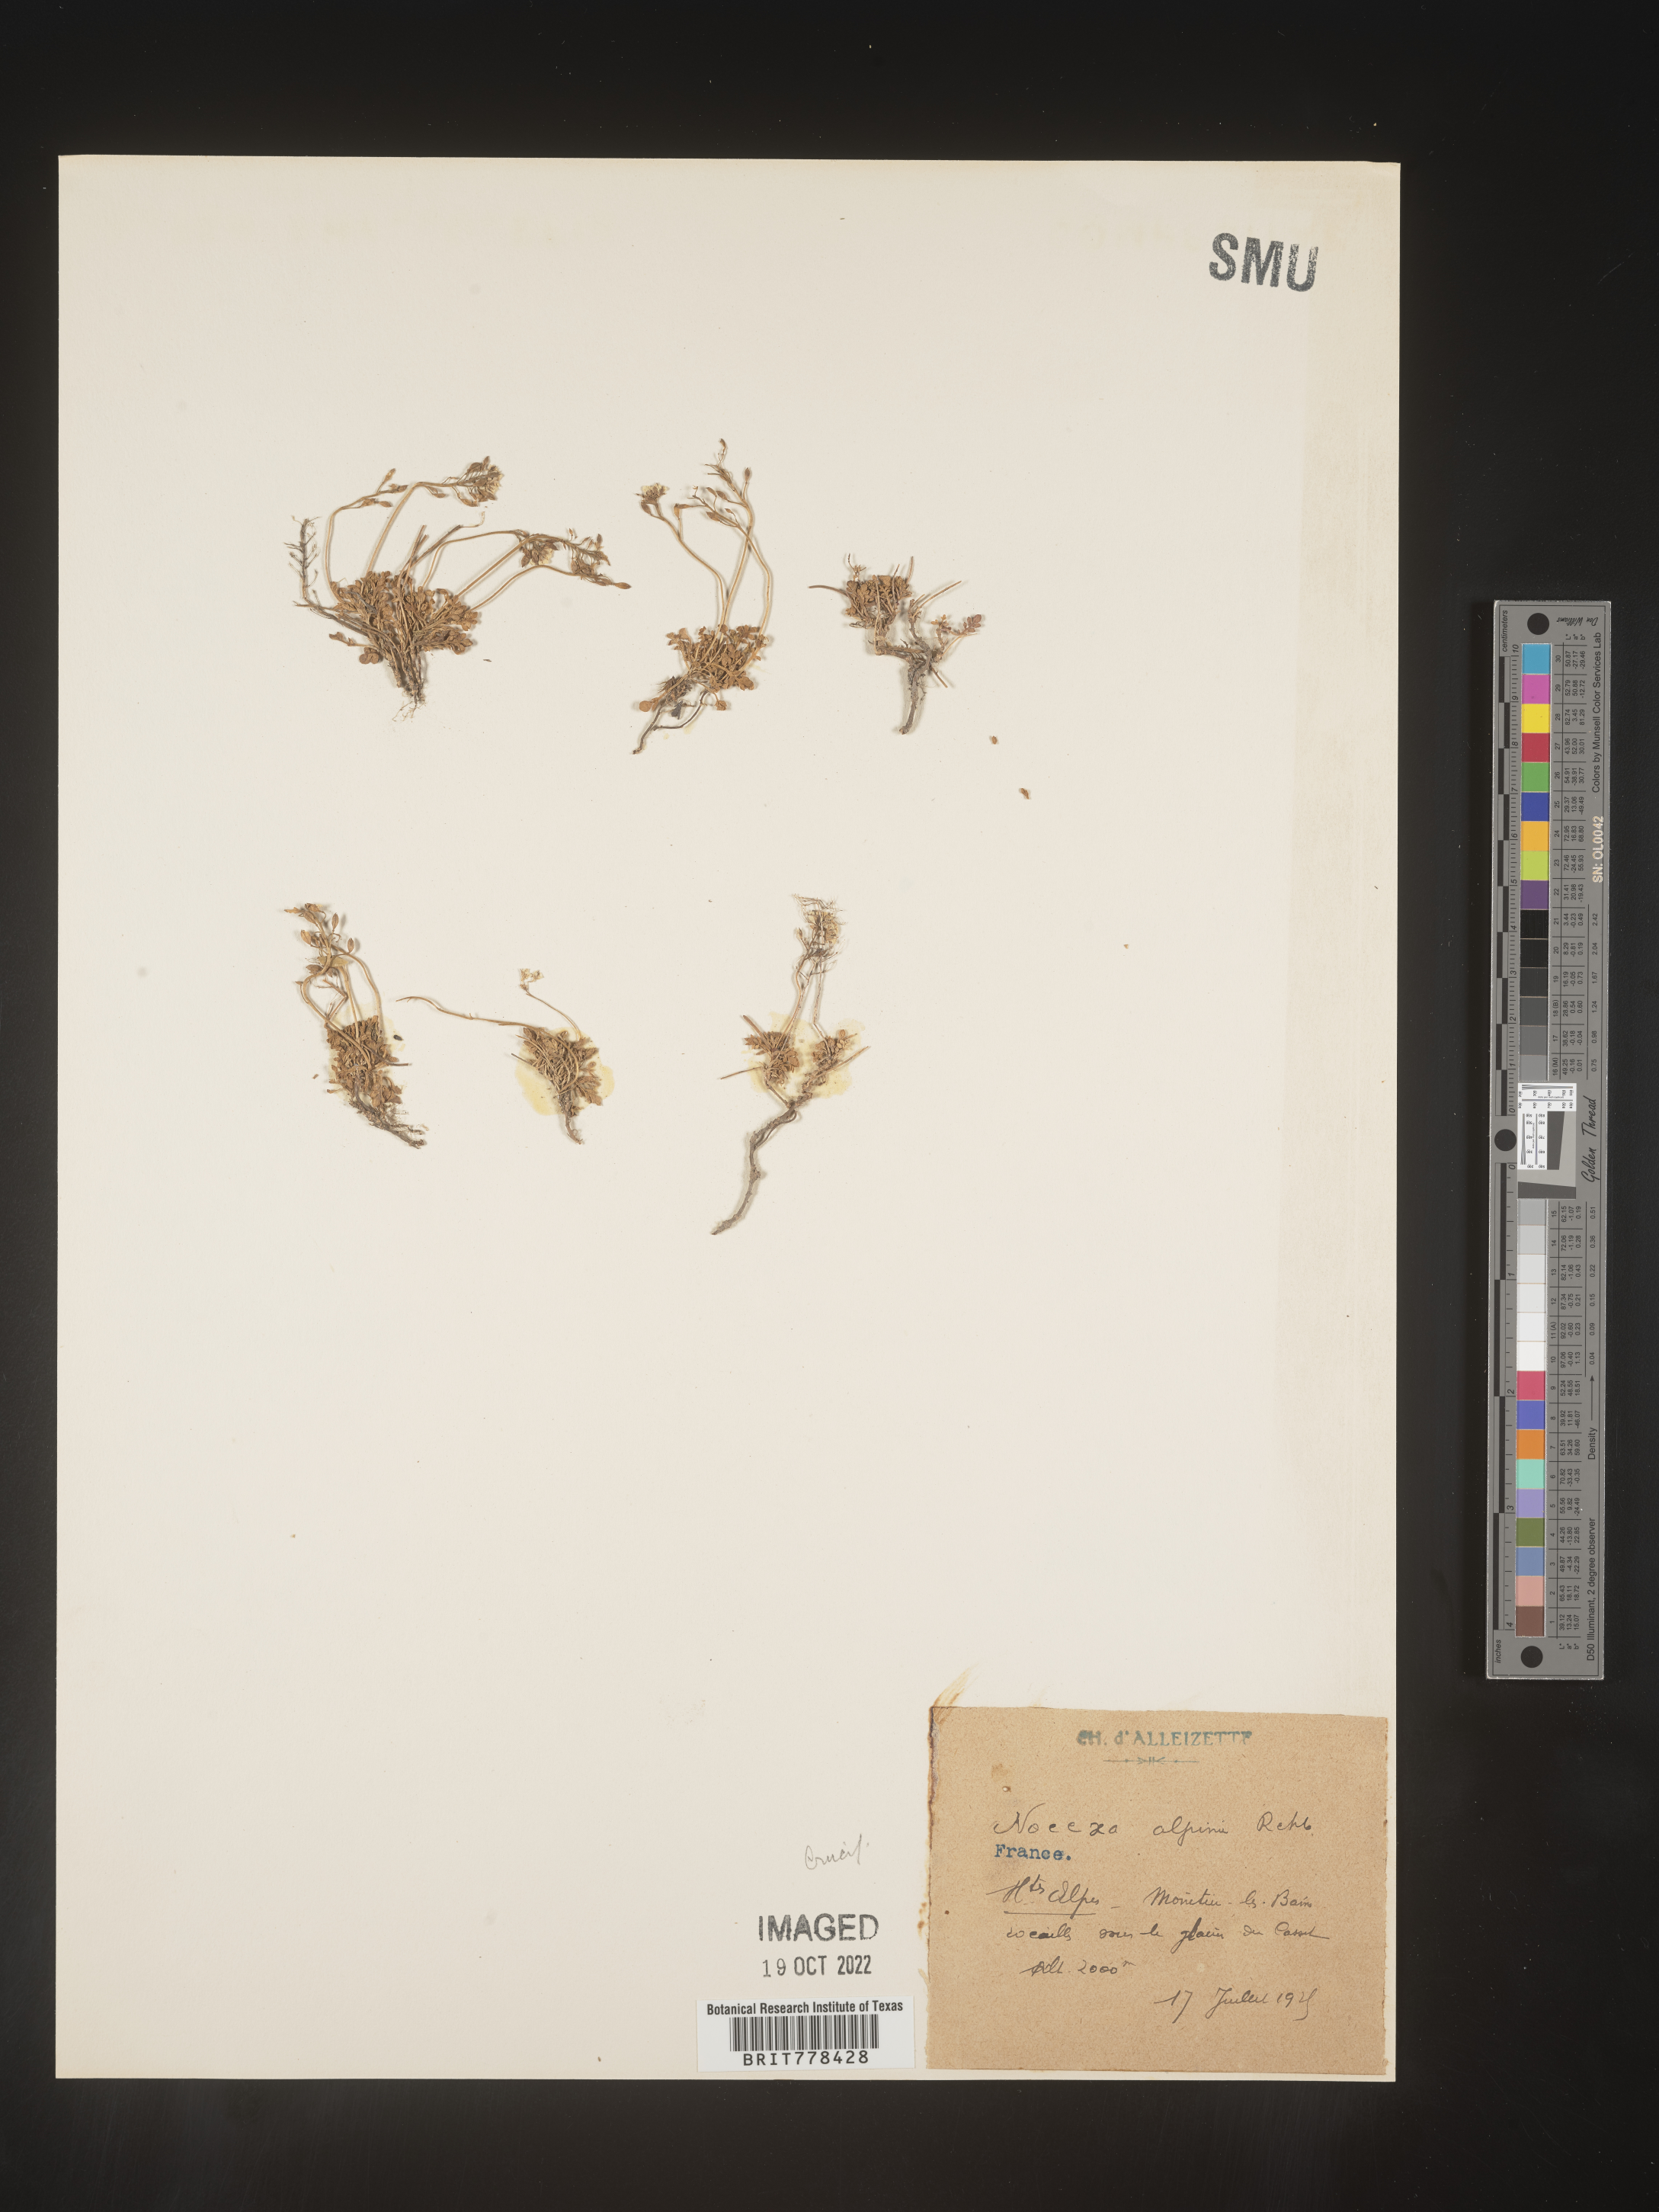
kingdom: Plantae
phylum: Tracheophyta
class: Magnoliopsida
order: Brassicales
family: Brassicaceae
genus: Noccaea
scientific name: Noccaea
